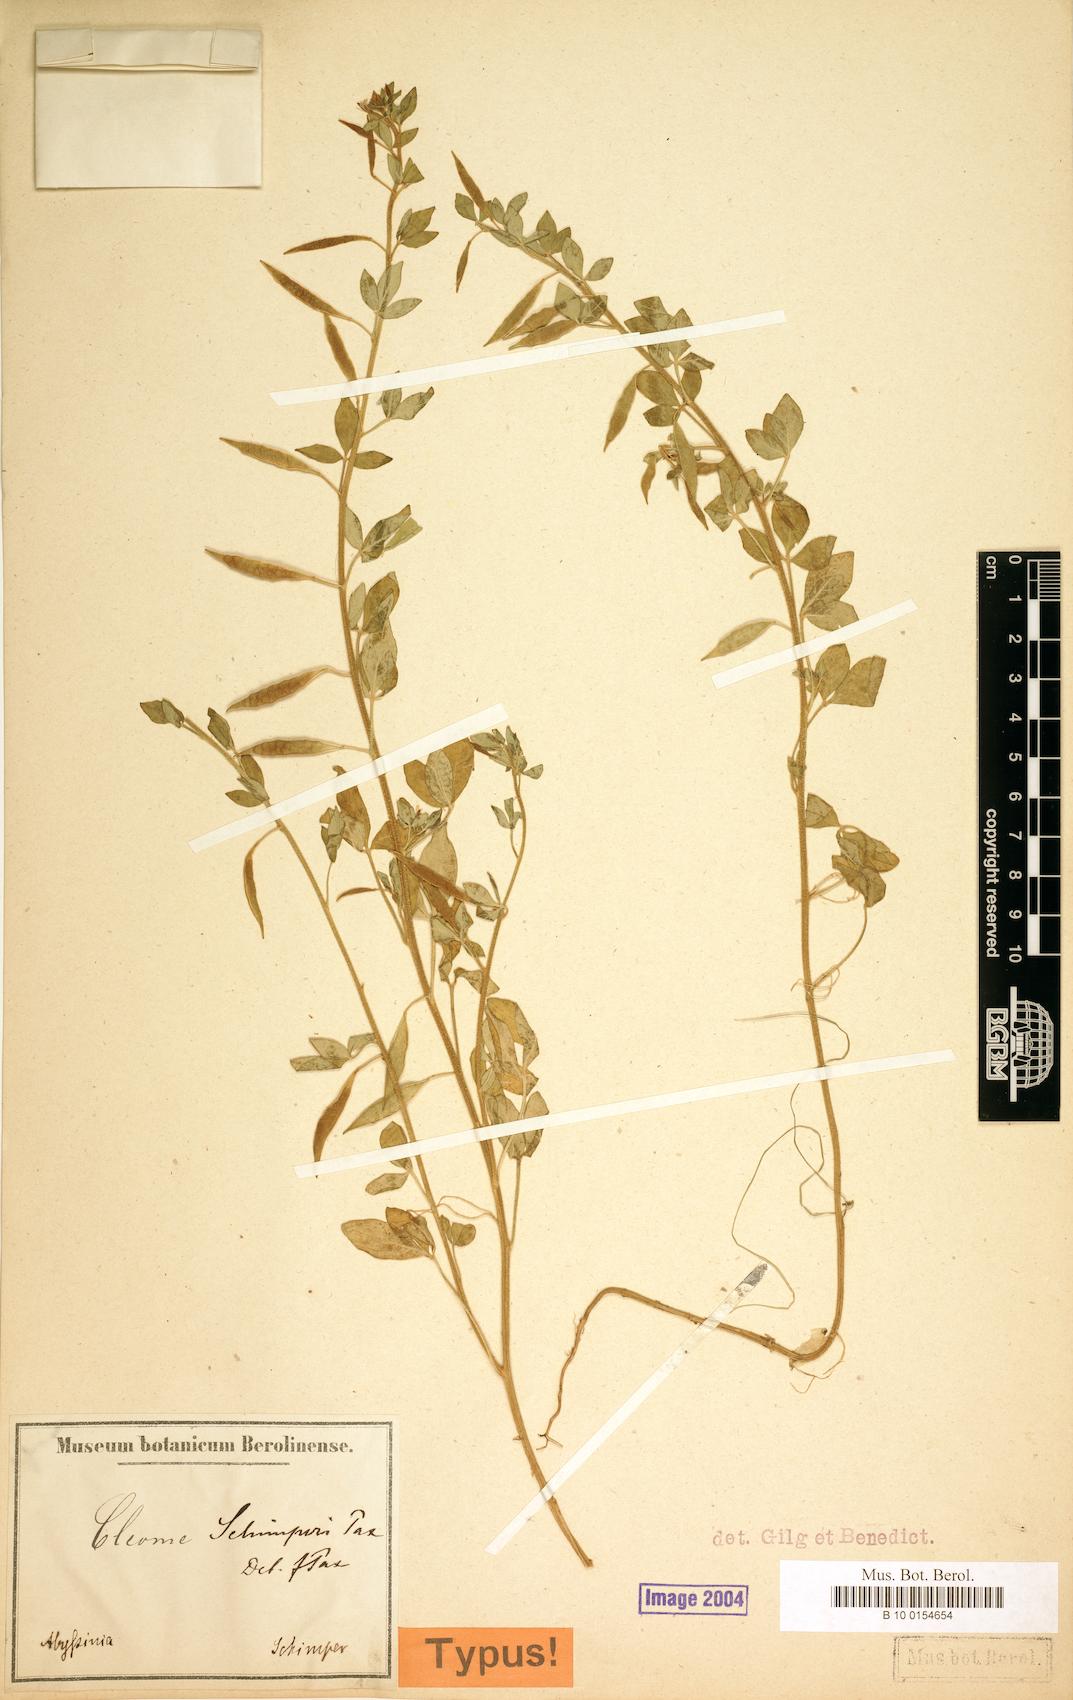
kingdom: Plantae
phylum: Tracheophyta
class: Magnoliopsida
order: Brassicales
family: Cleomaceae
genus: Sieruela
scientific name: Sieruela schimperi
